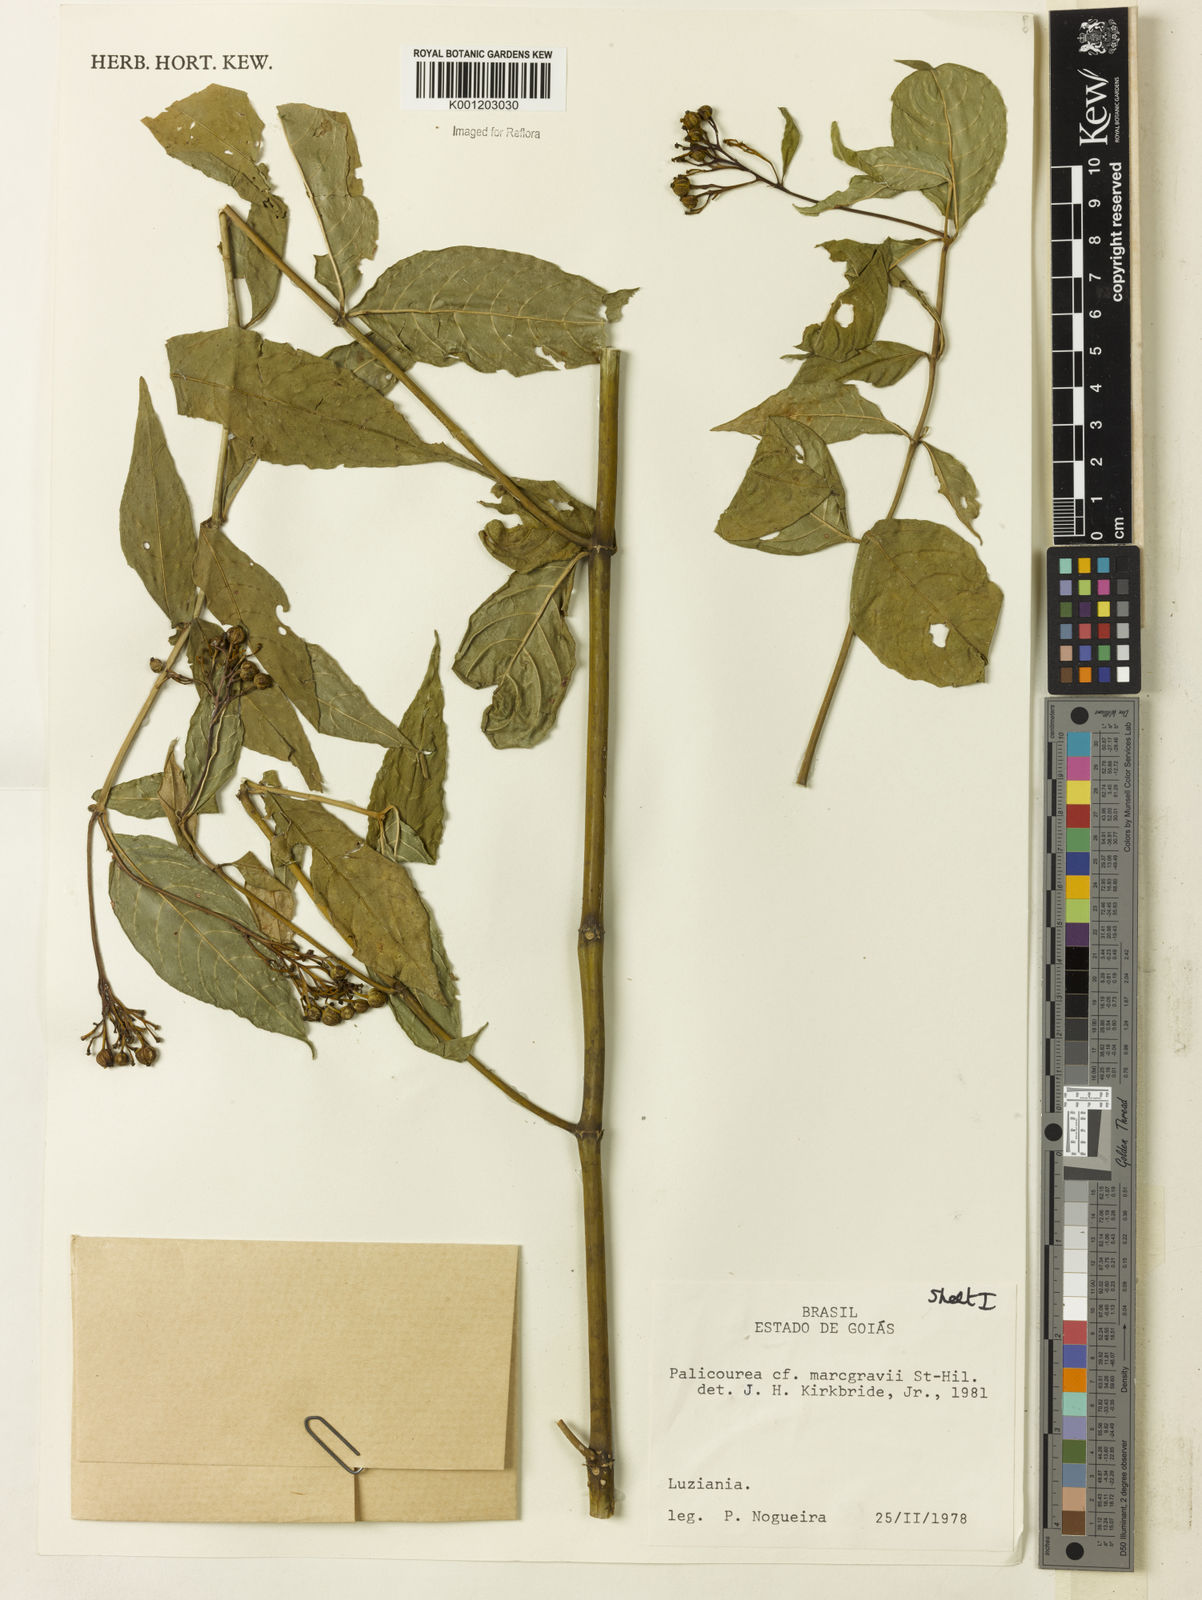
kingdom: Plantae
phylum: Tracheophyta
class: Magnoliopsida
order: Gentianales
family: Rubiaceae
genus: Palicourea
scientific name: Palicourea marcgravii
